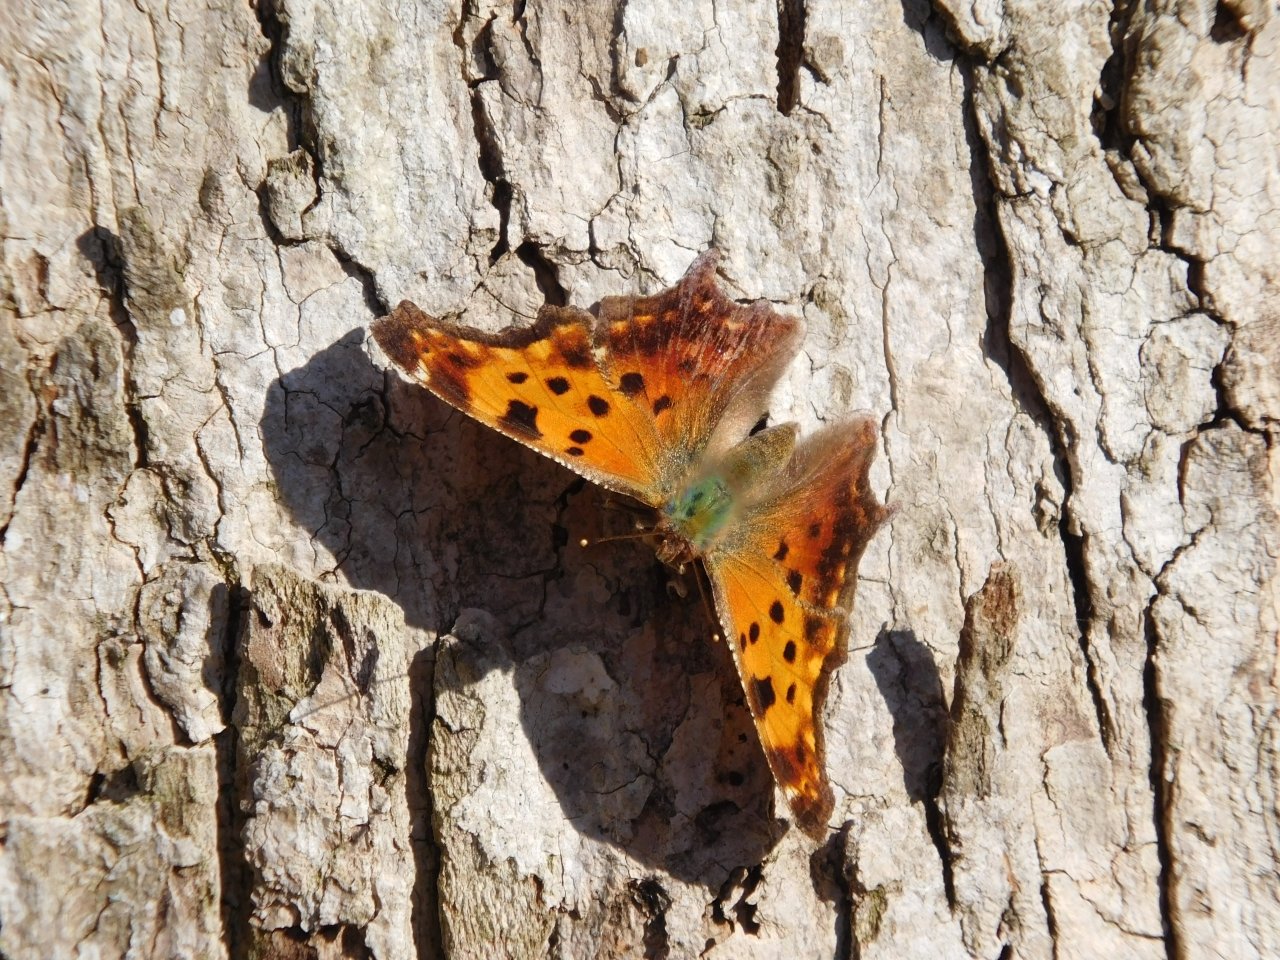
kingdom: Animalia
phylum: Arthropoda
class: Insecta
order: Lepidoptera
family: Nymphalidae
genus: Polygonia
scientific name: Polygonia comma
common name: Eastern Comma
